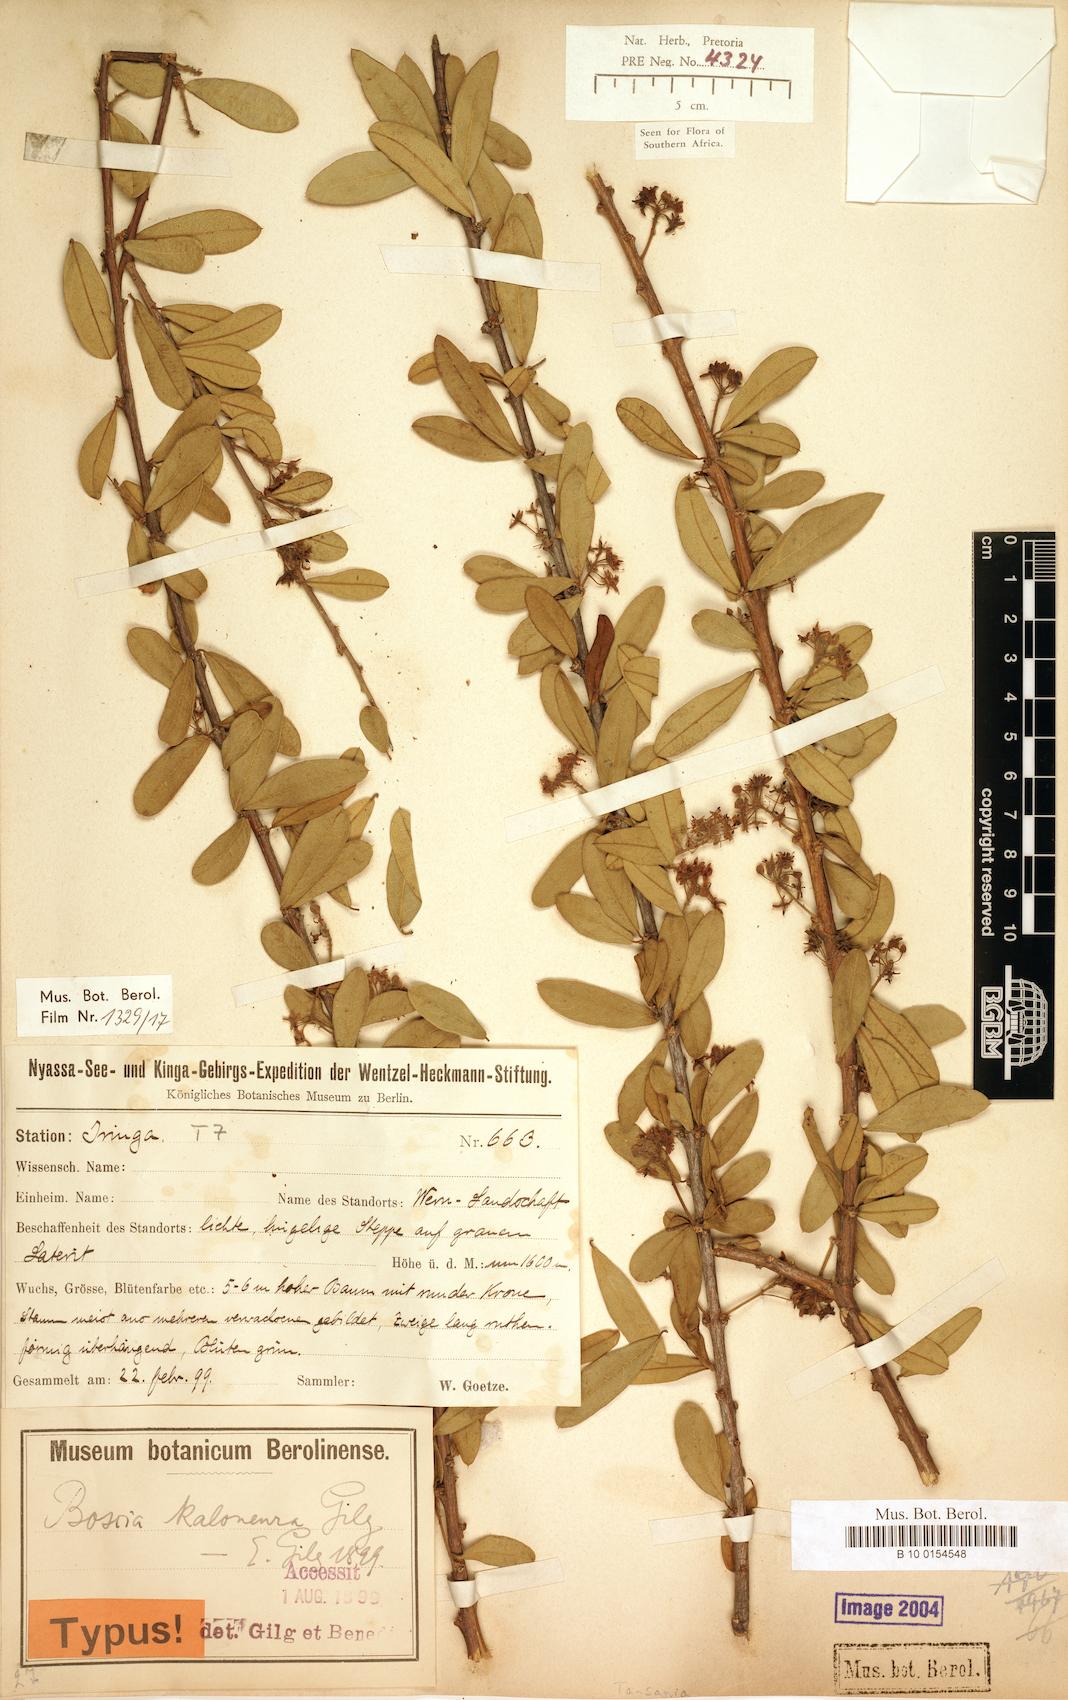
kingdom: Plantae
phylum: Tracheophyta
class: Magnoliopsida
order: Brassicales
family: Capparaceae
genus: Boscia
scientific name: Boscia angustifolia
